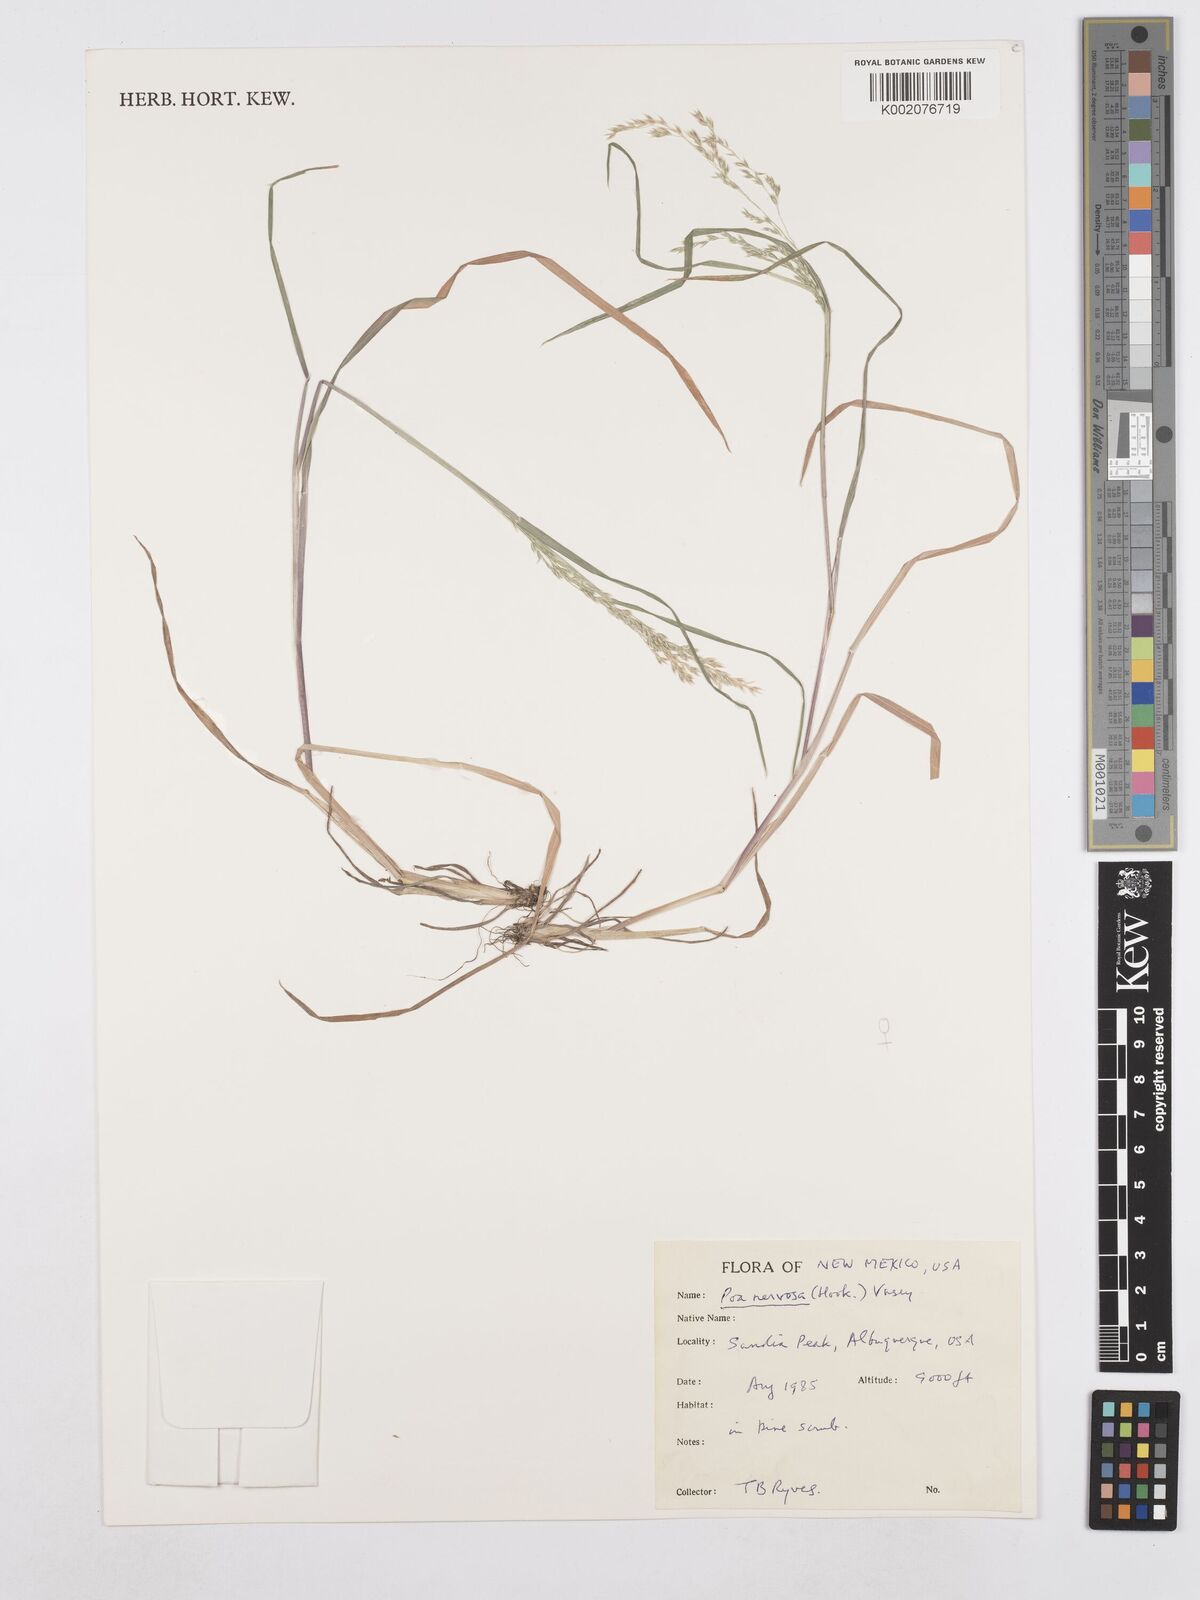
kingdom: Plantae
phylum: Tracheophyta
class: Liliopsida
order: Poales
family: Poaceae
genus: Poa
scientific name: Poa nervosa
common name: Hooker's bluegrass
